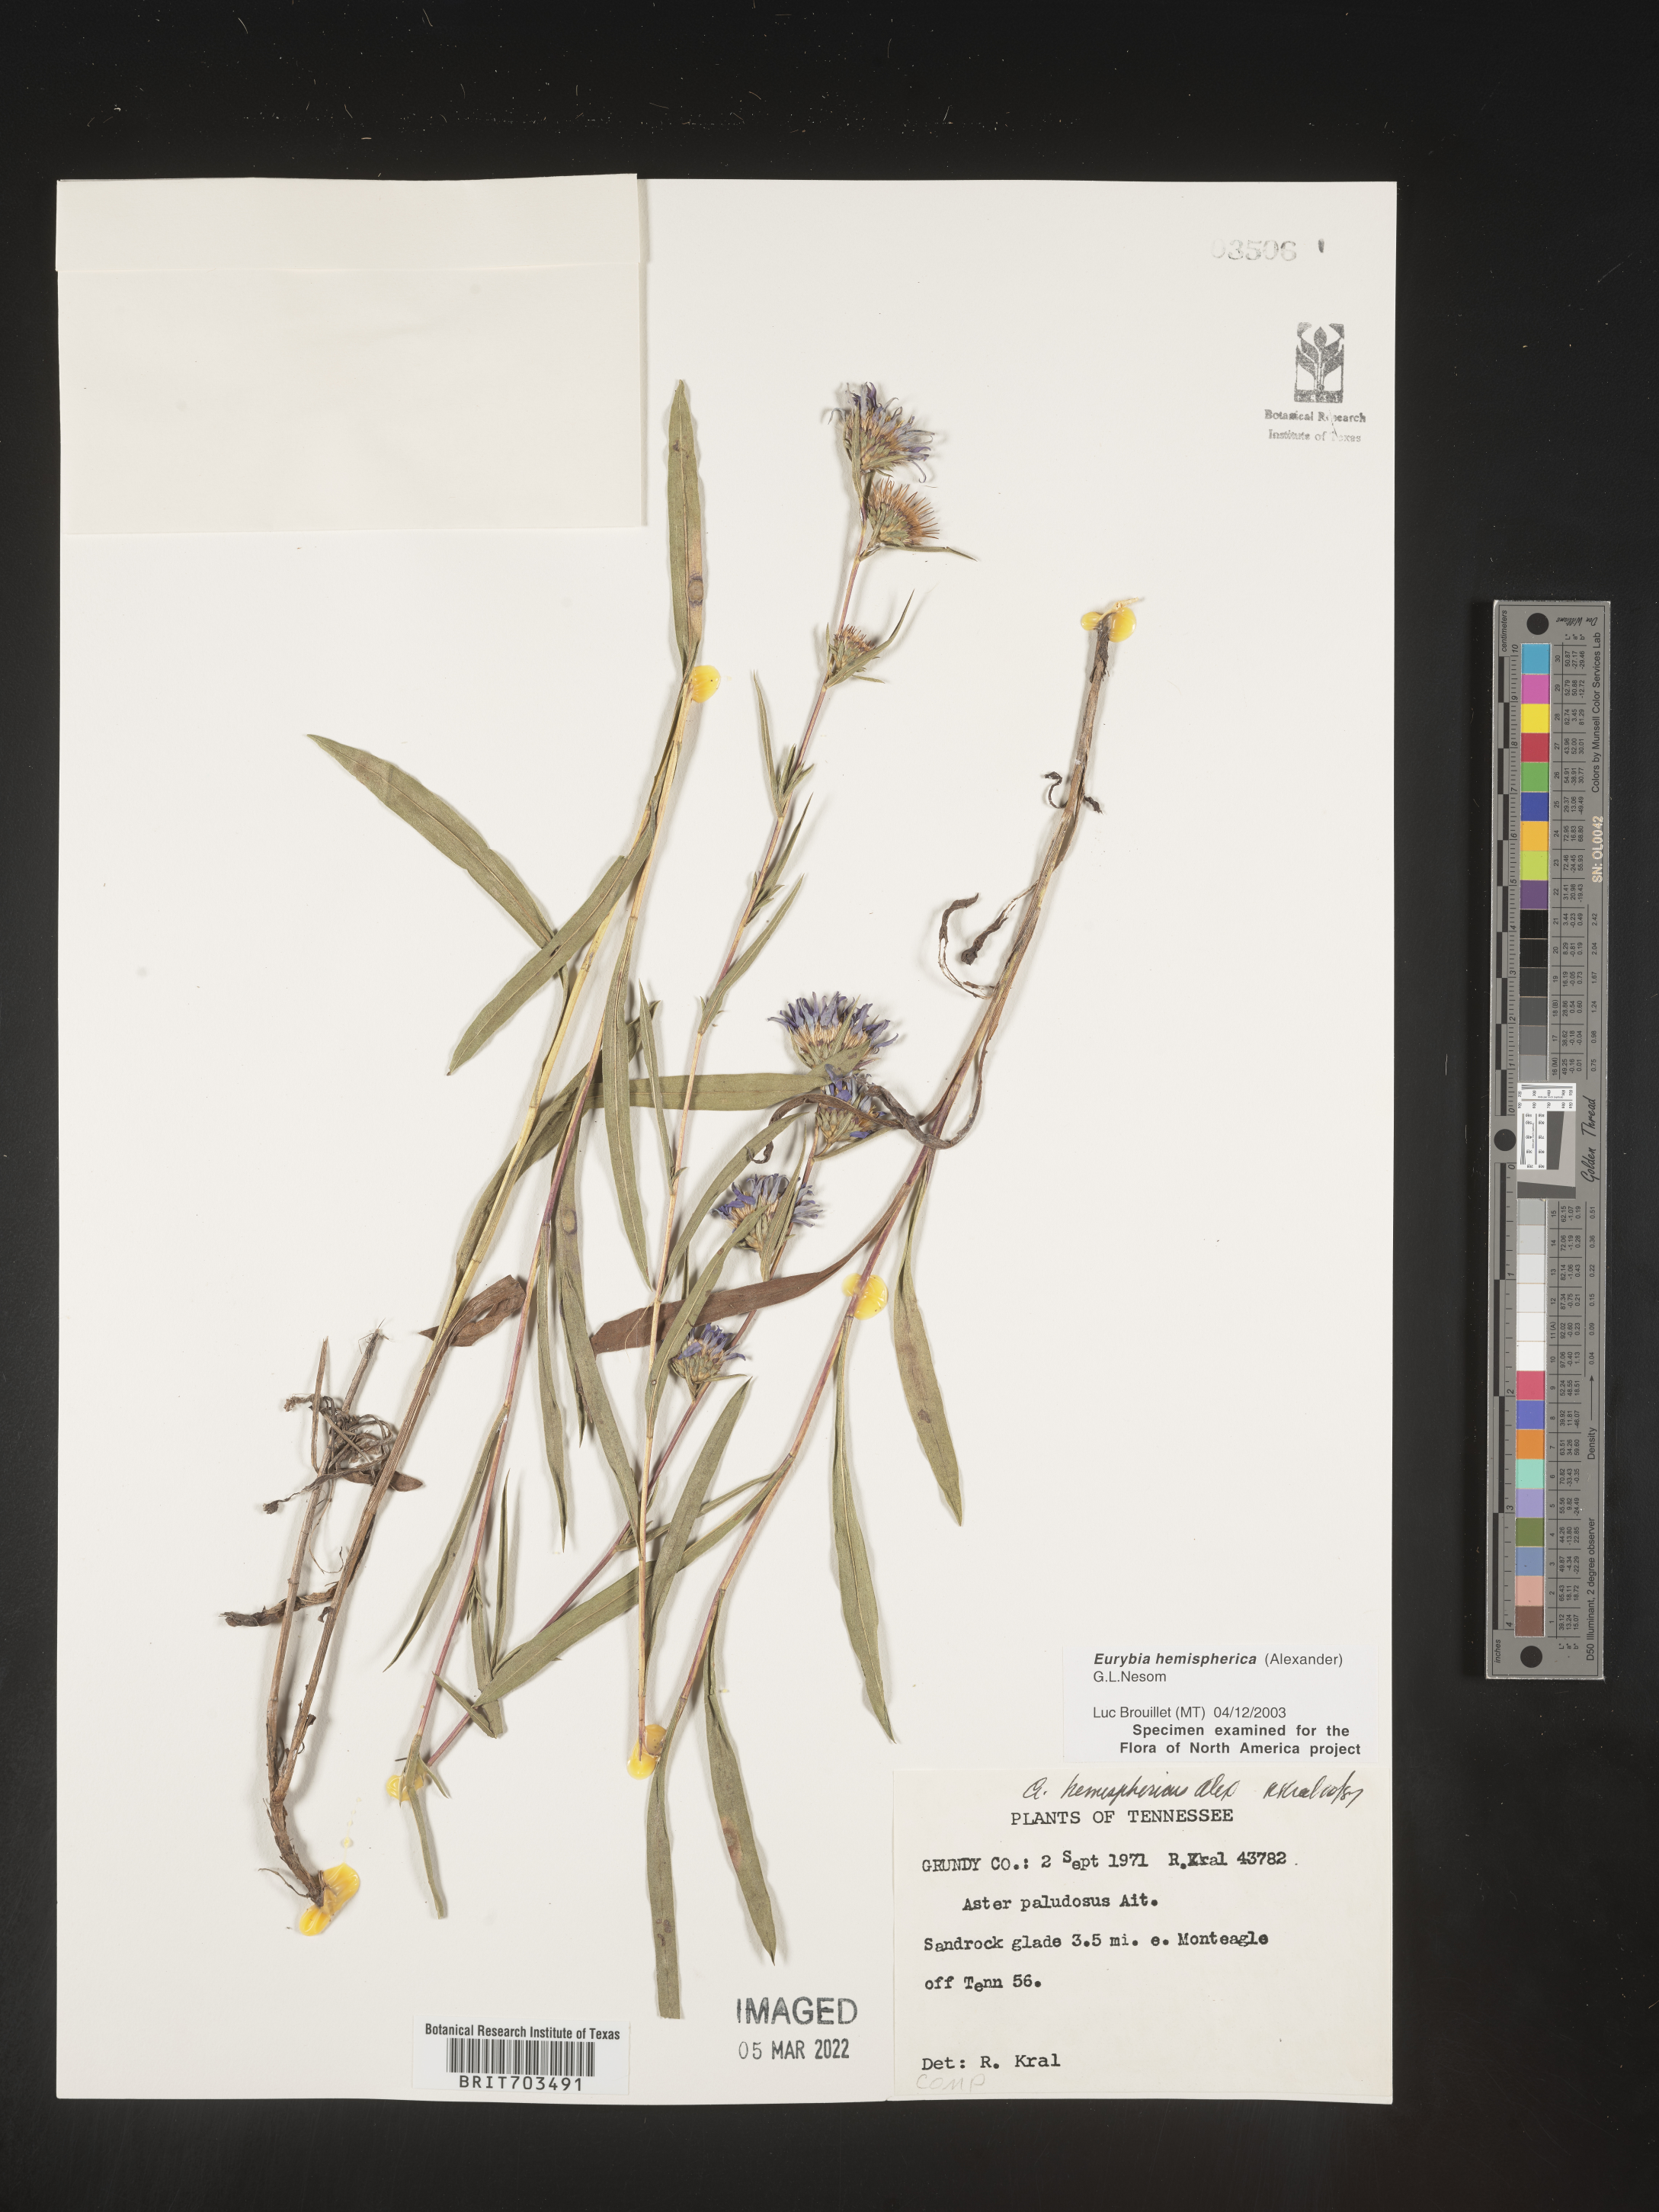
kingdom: Plantae
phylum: Tracheophyta
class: Magnoliopsida
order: Asterales
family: Asteraceae
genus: Eurybia
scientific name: Eurybia hemispherica
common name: Showy aster
